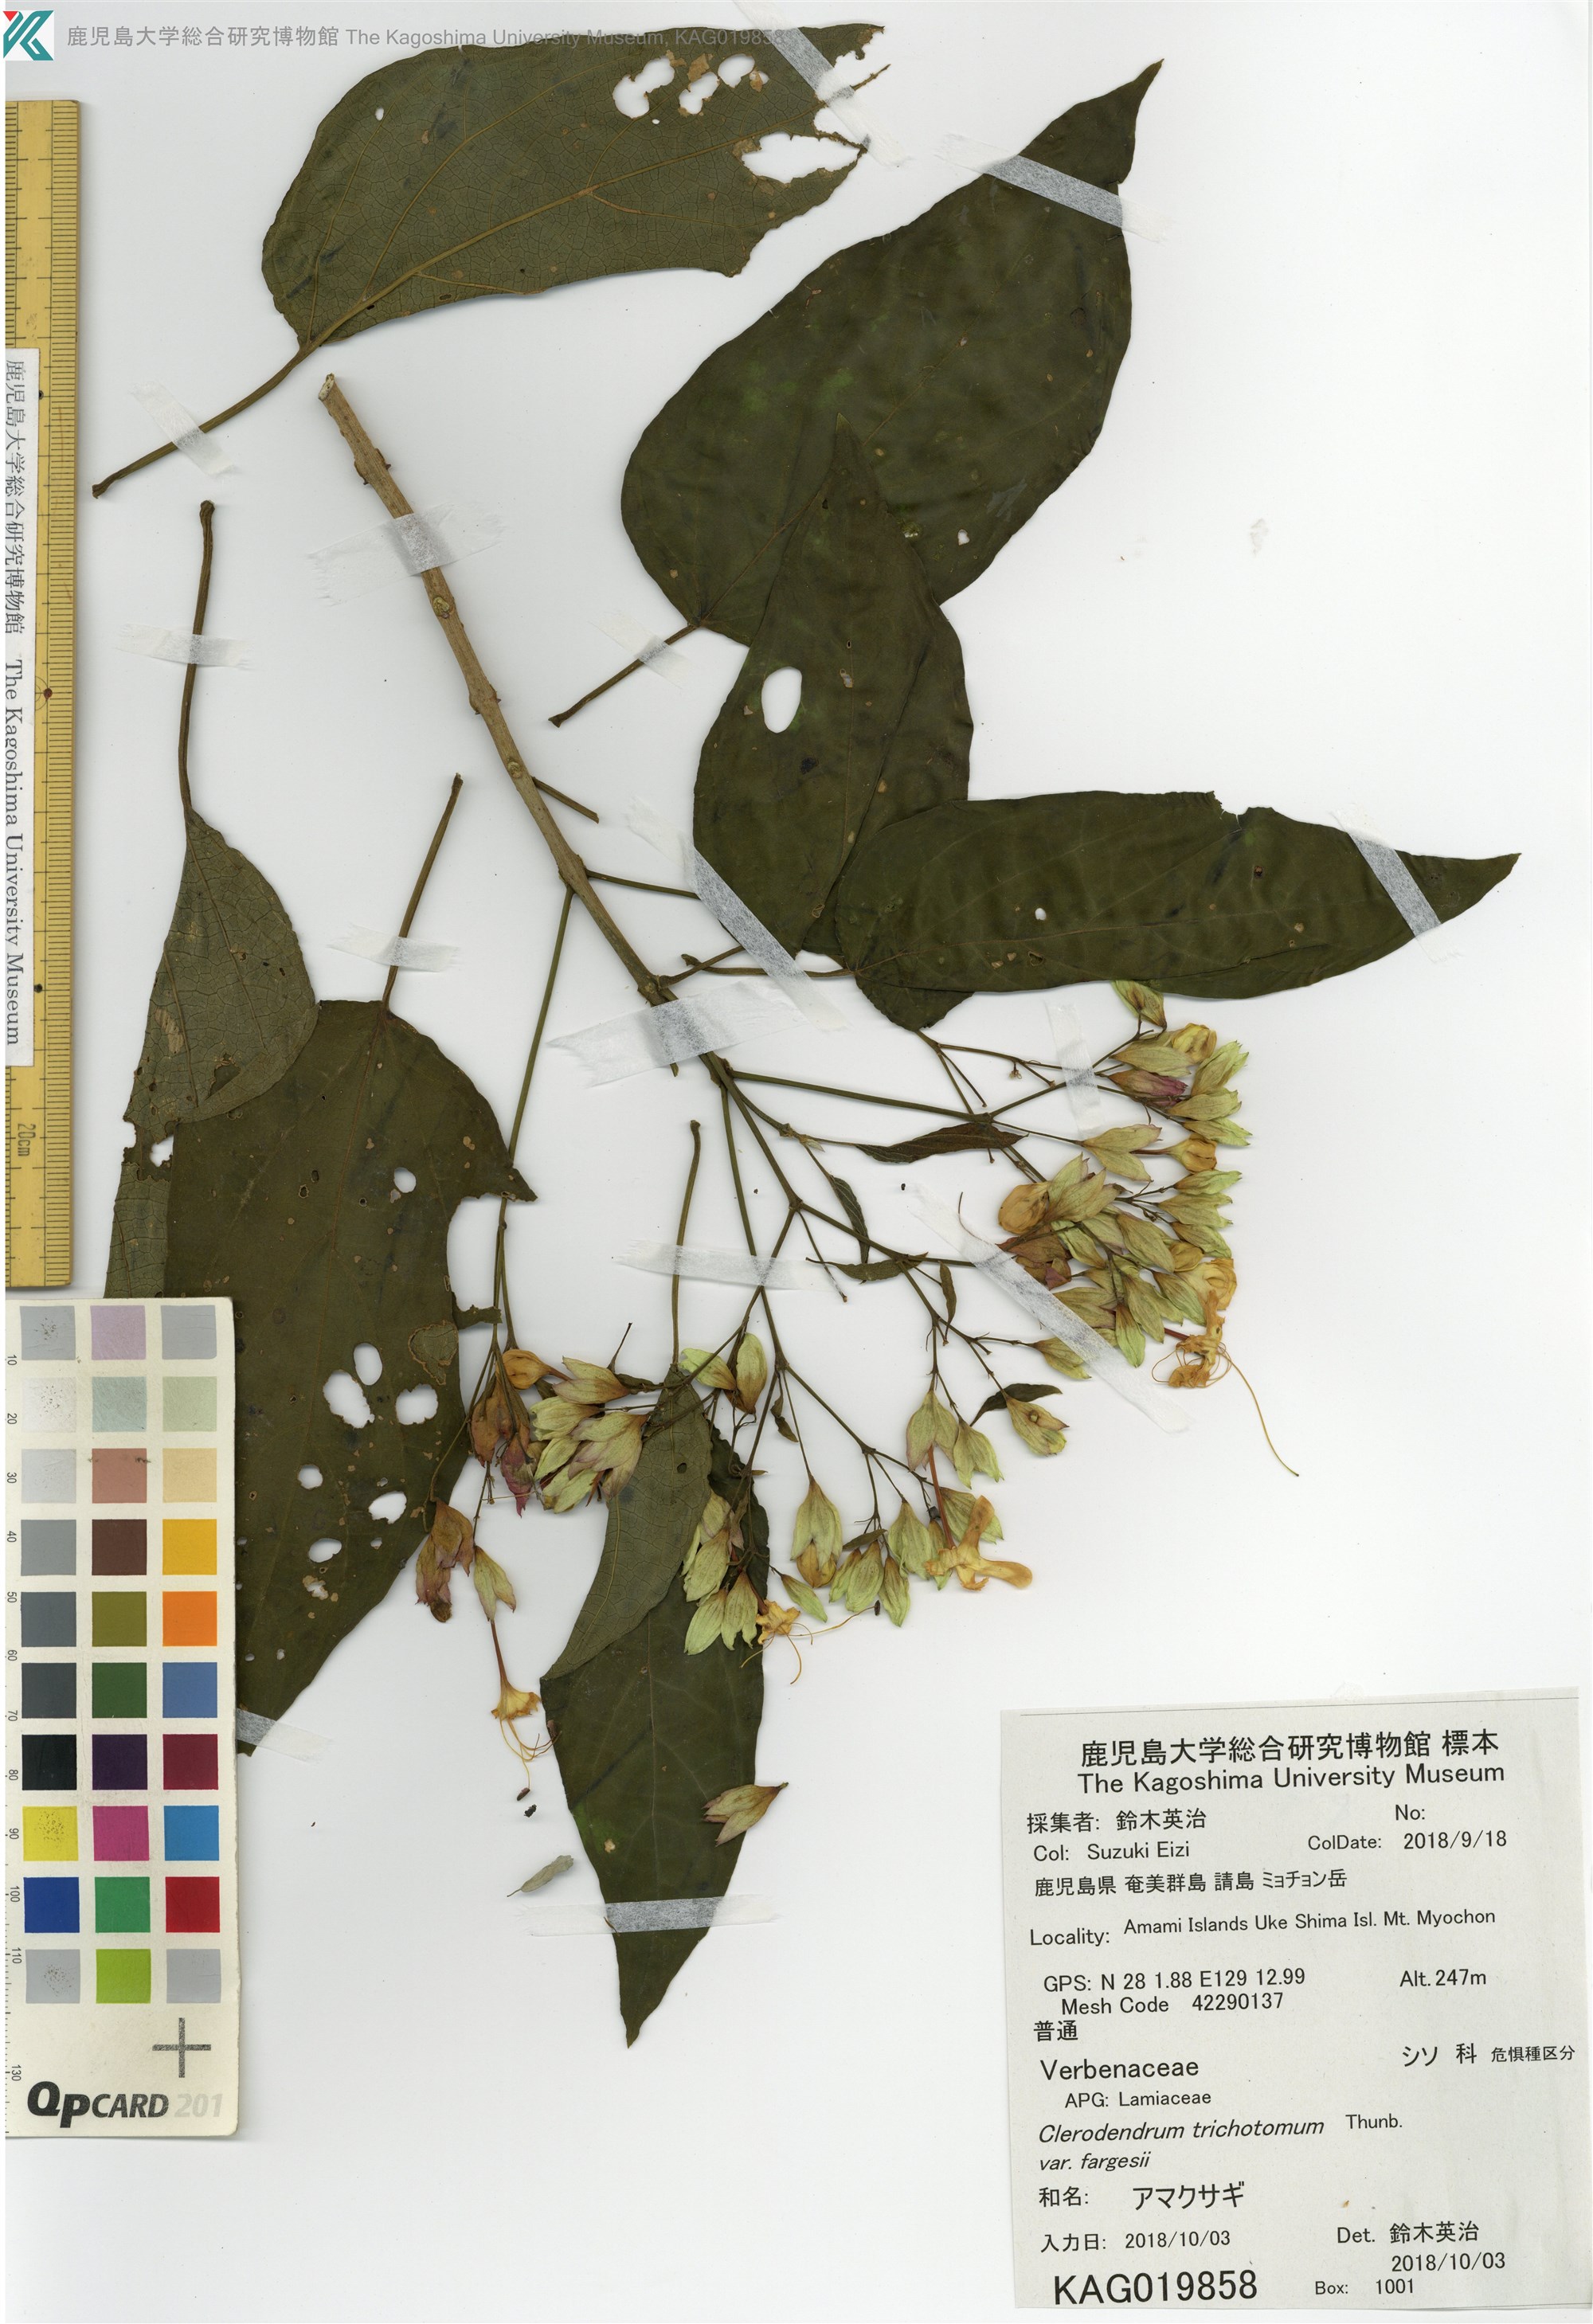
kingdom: Plantae
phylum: Tracheophyta
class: Magnoliopsida
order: Lamiales
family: Lamiaceae
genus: Clerodendrum
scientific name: Clerodendrum trichotomum
